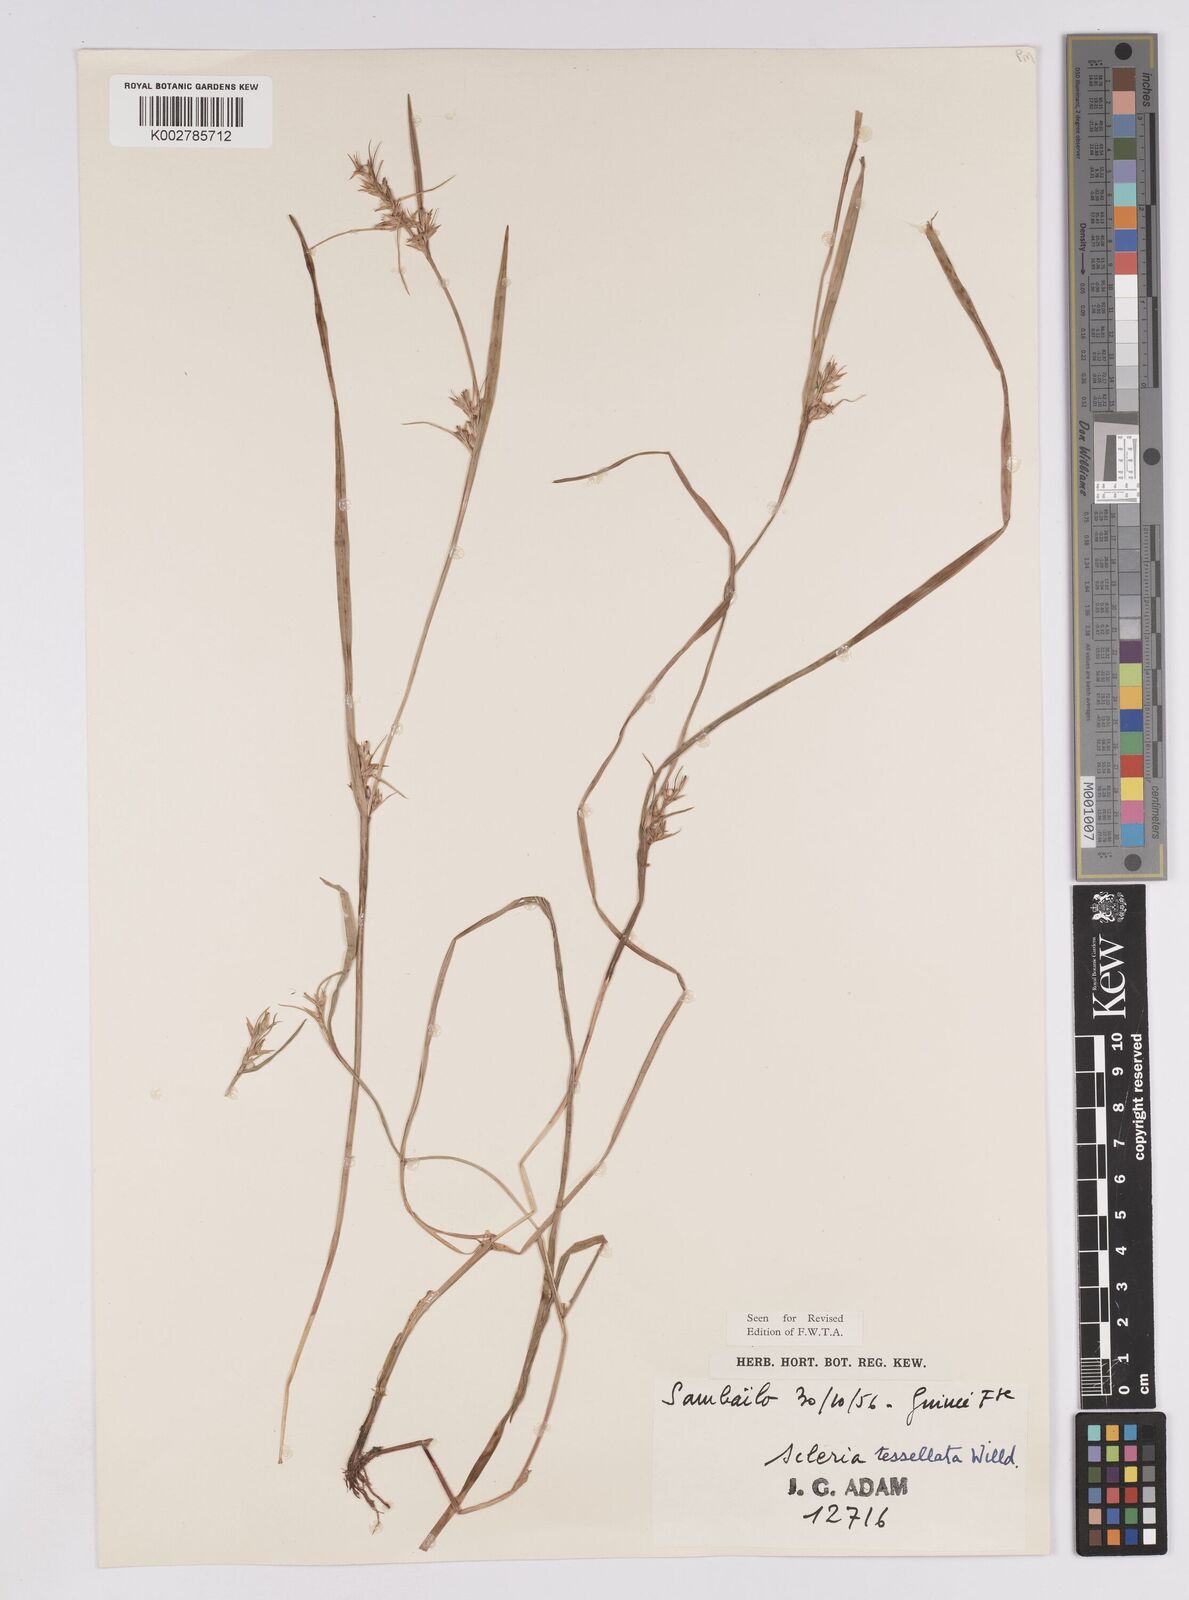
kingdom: Plantae
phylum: Tracheophyta
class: Liliopsida
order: Poales
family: Cyperaceae
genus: Scleria
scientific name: Scleria tessellata
